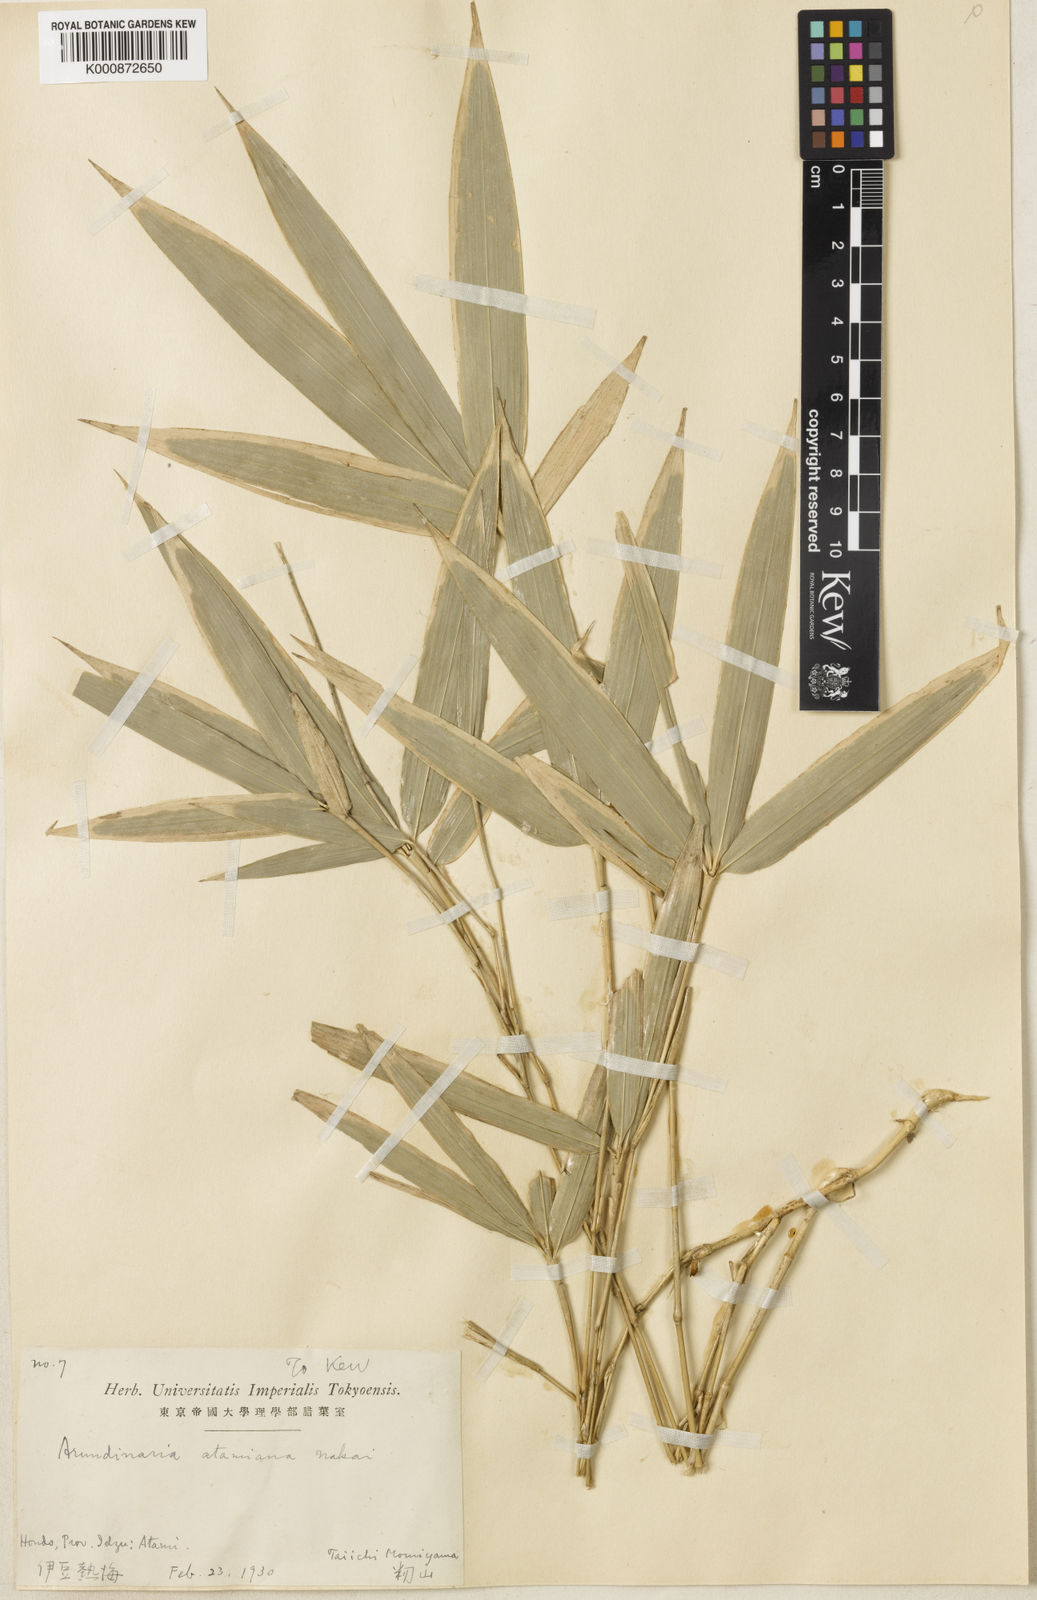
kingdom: Plantae
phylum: Tracheophyta
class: Liliopsida
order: Poales
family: Poaceae
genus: Sasaella
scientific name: Sasaella leucorhoda
